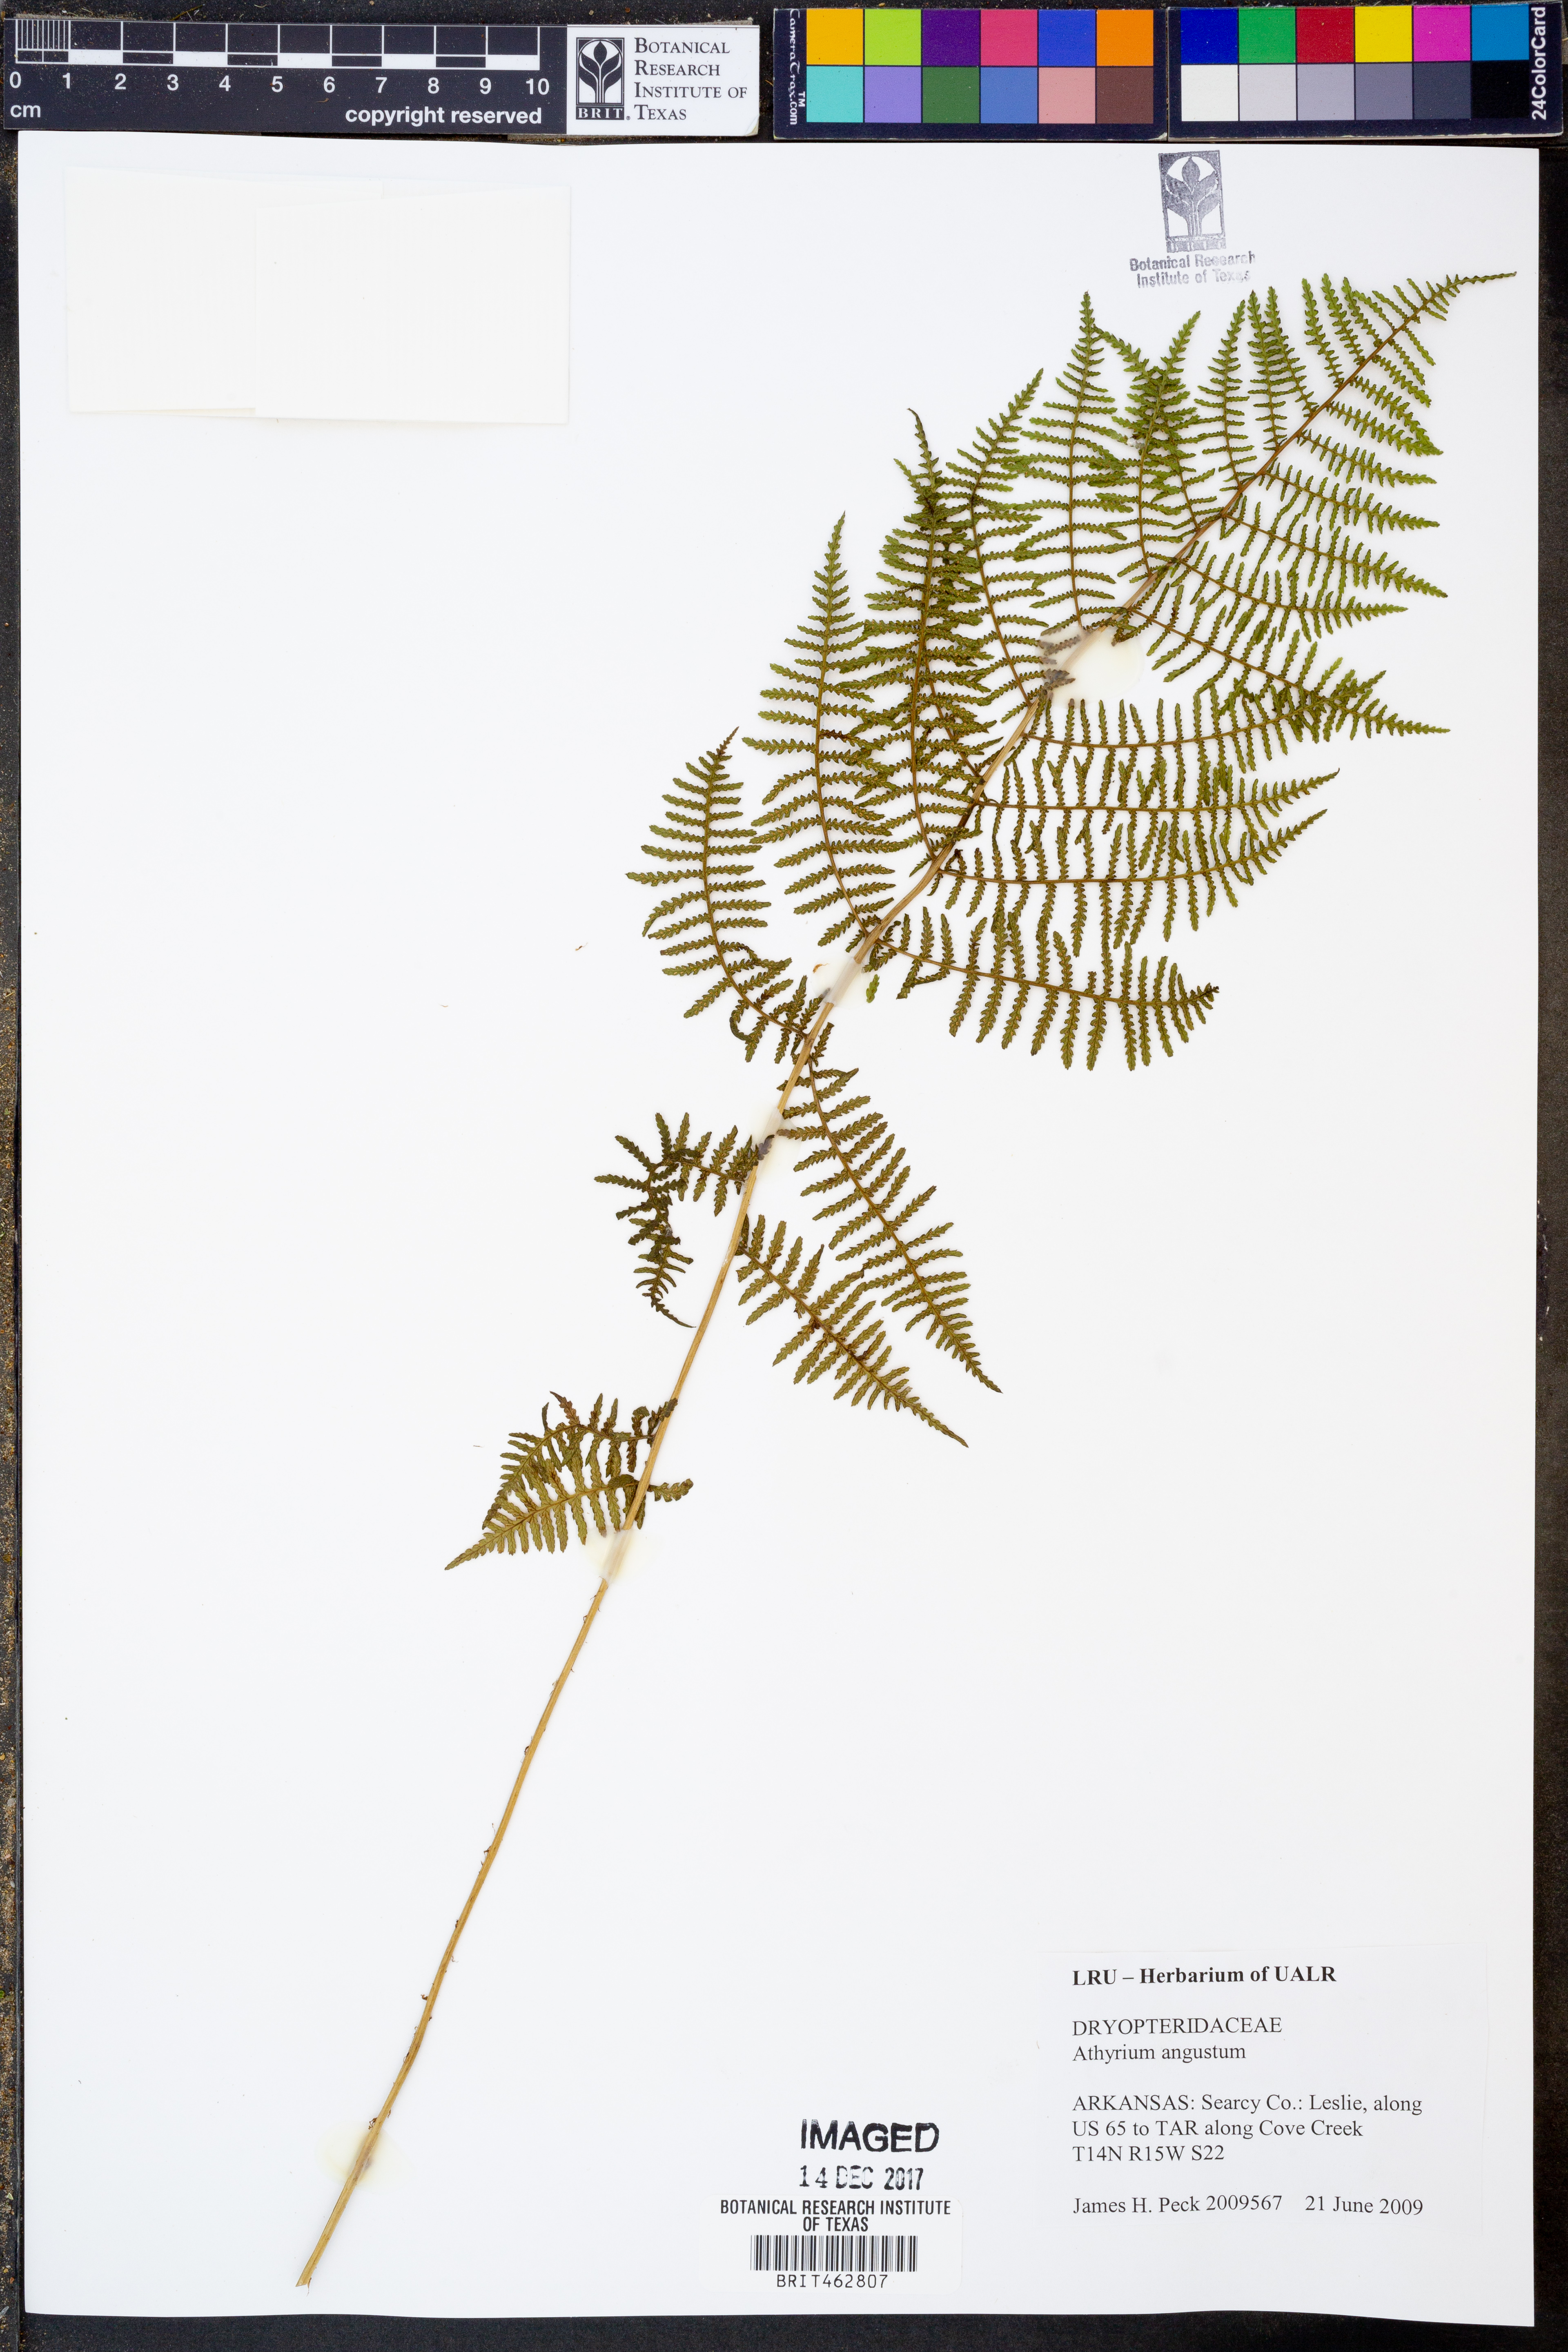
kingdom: Plantae
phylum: Tracheophyta
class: Polypodiopsida
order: Polypodiales
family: Athyriaceae
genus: Athyrium
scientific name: Athyrium angustum
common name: Northern lady fern
